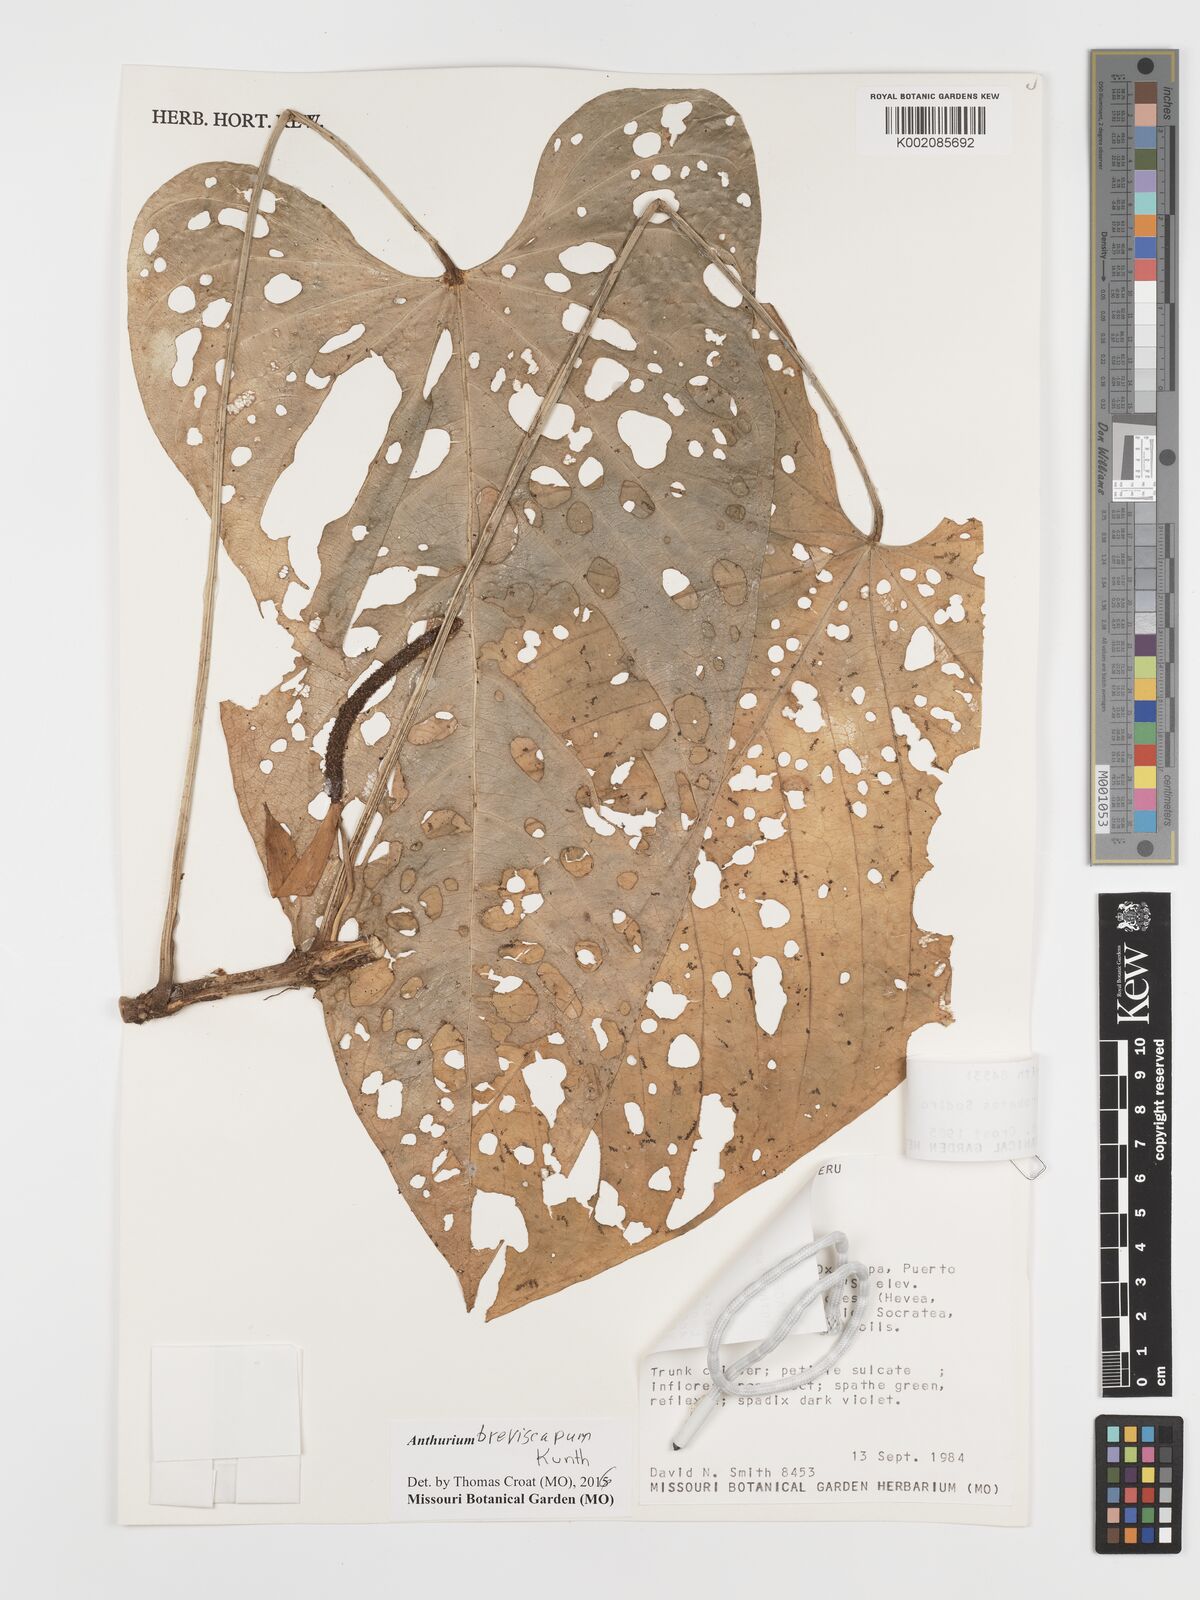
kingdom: Plantae
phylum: Tracheophyta
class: Liliopsida
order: Alismatales
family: Araceae
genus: Anthurium
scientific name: Anthurium breviscapum
